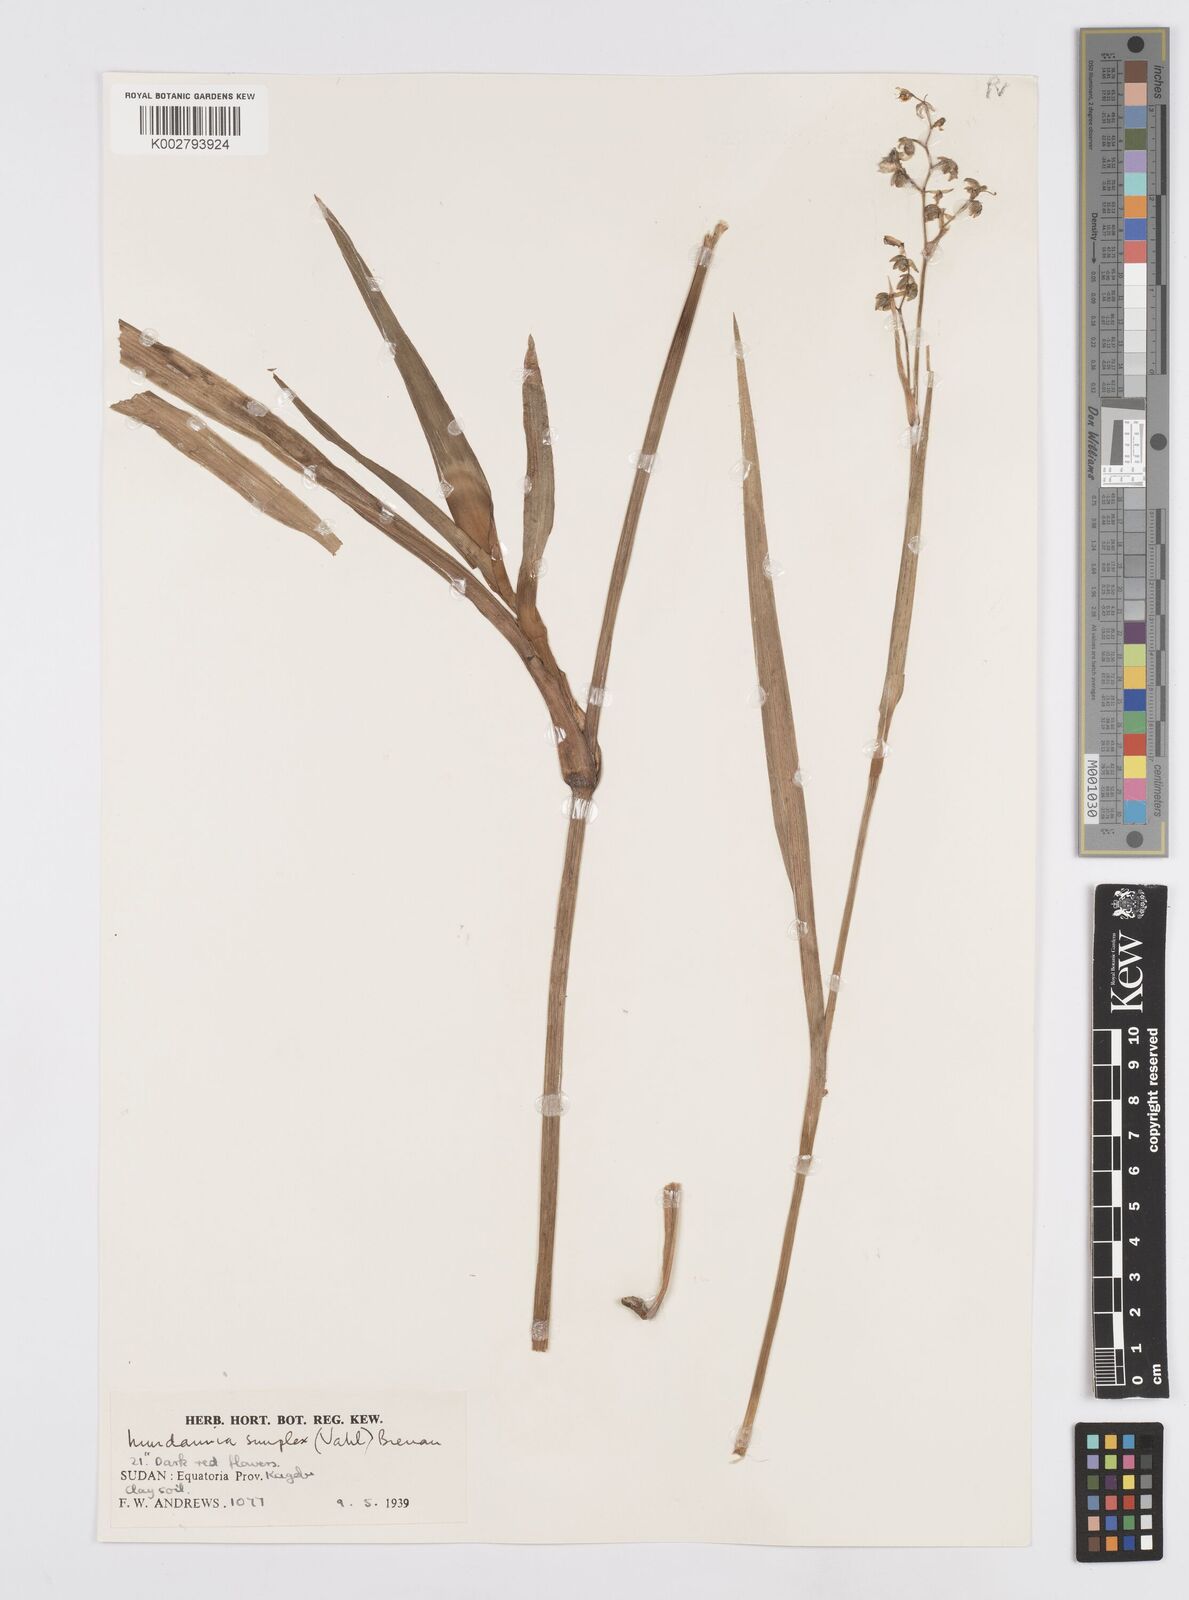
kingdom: Plantae
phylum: Tracheophyta
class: Liliopsida
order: Commelinales
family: Commelinaceae
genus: Murdannia
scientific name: Murdannia simplex
